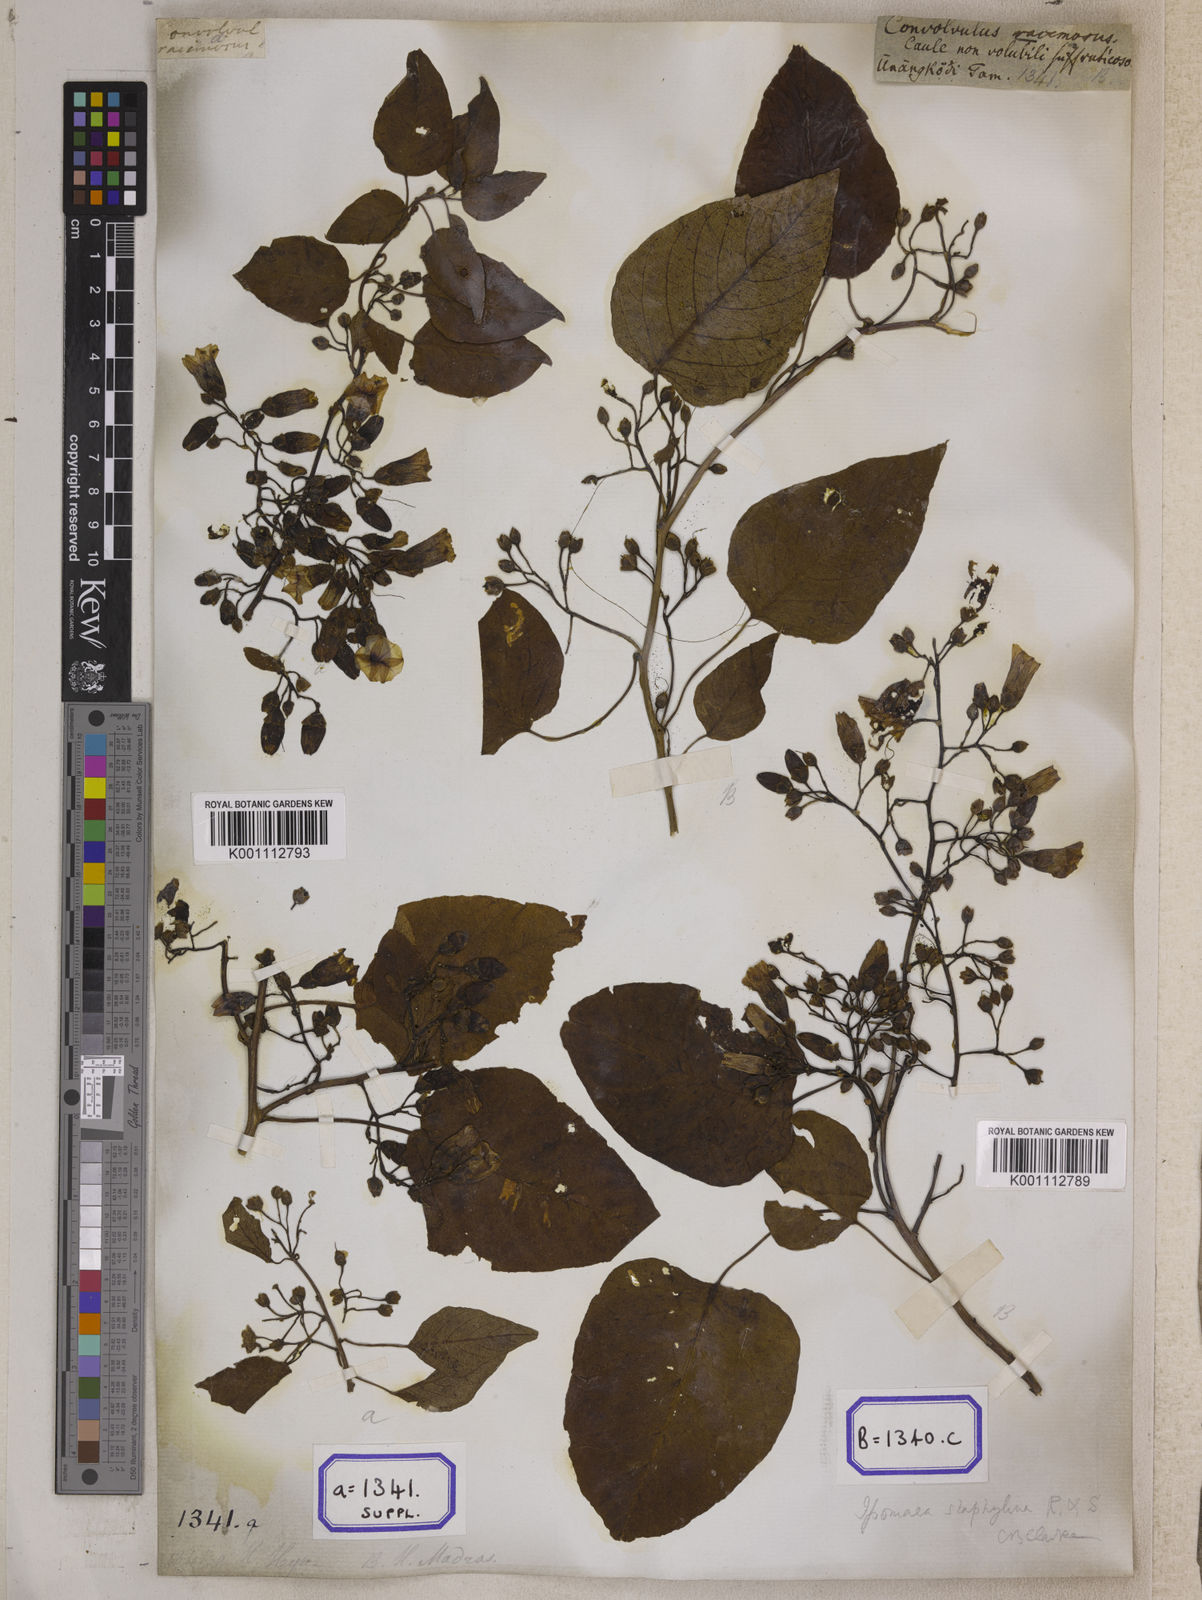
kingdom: Plantae
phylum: Tracheophyta
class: Magnoliopsida
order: Solanales
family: Convolvulaceae
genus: Hewittia
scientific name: Hewittia malabarica
